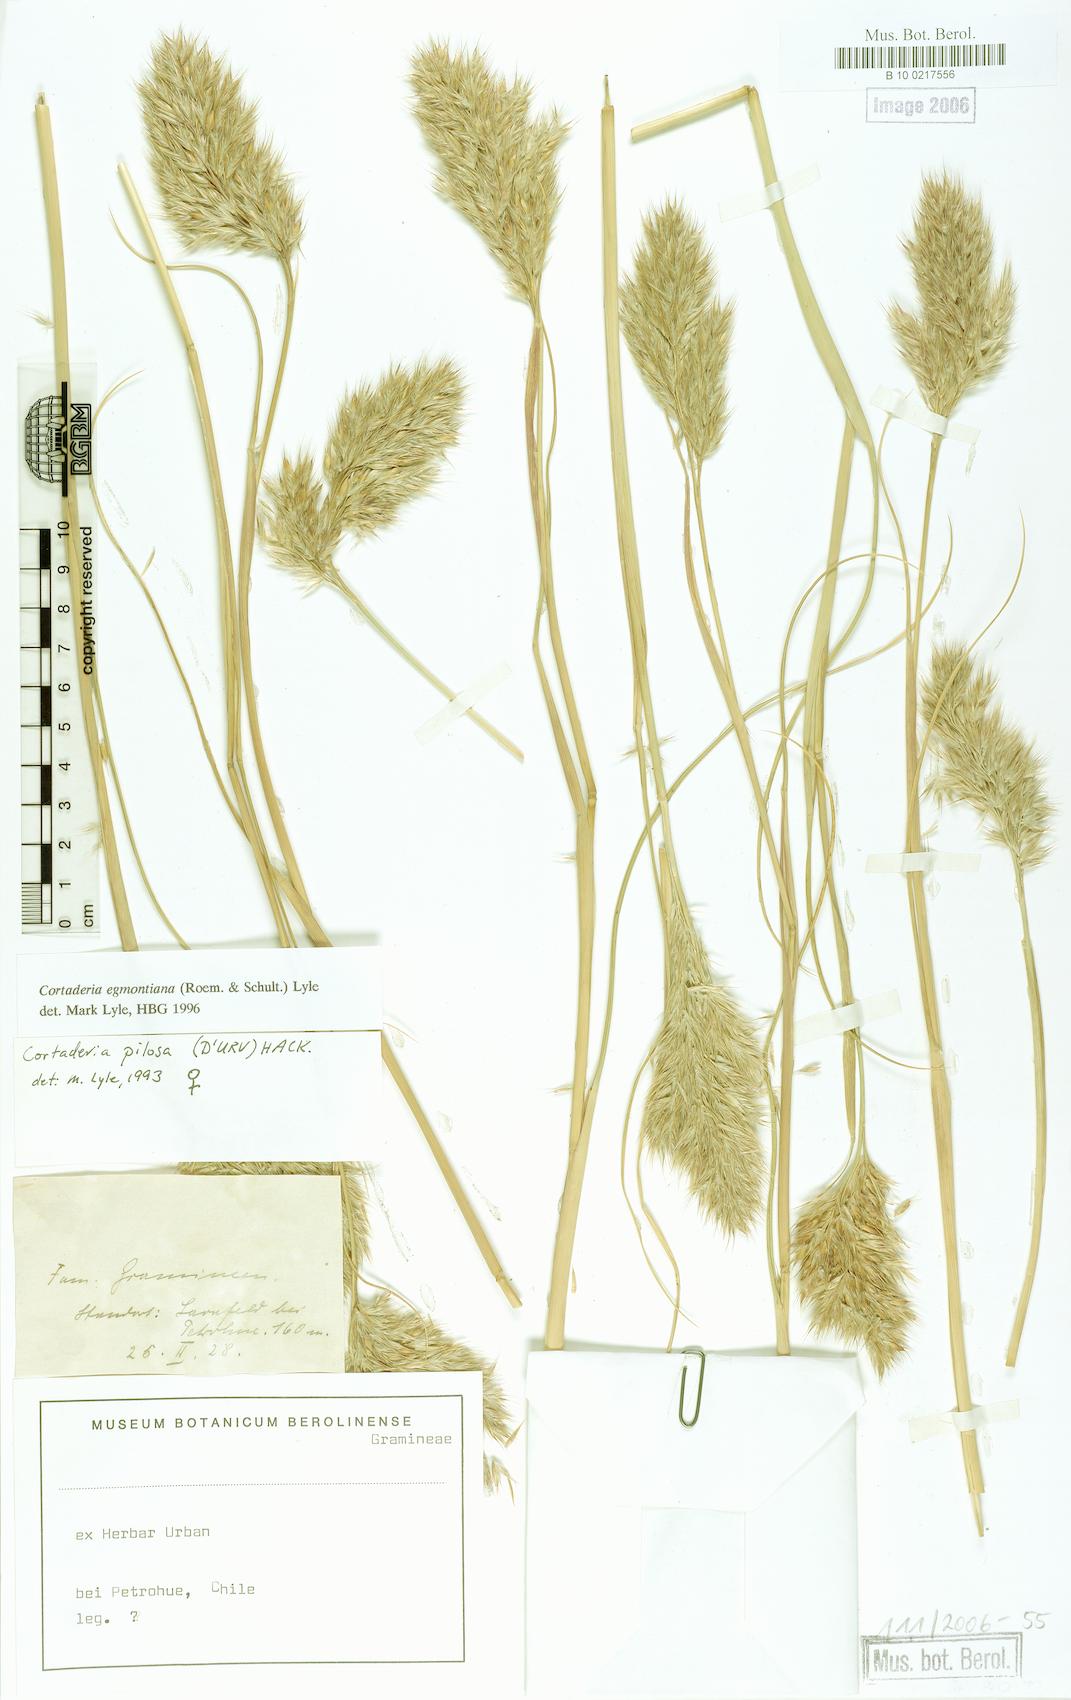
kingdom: Plantae
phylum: Tracheophyta
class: Liliopsida
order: Poales
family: Poaceae
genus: Cortaderia
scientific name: Cortaderia egmontiana
